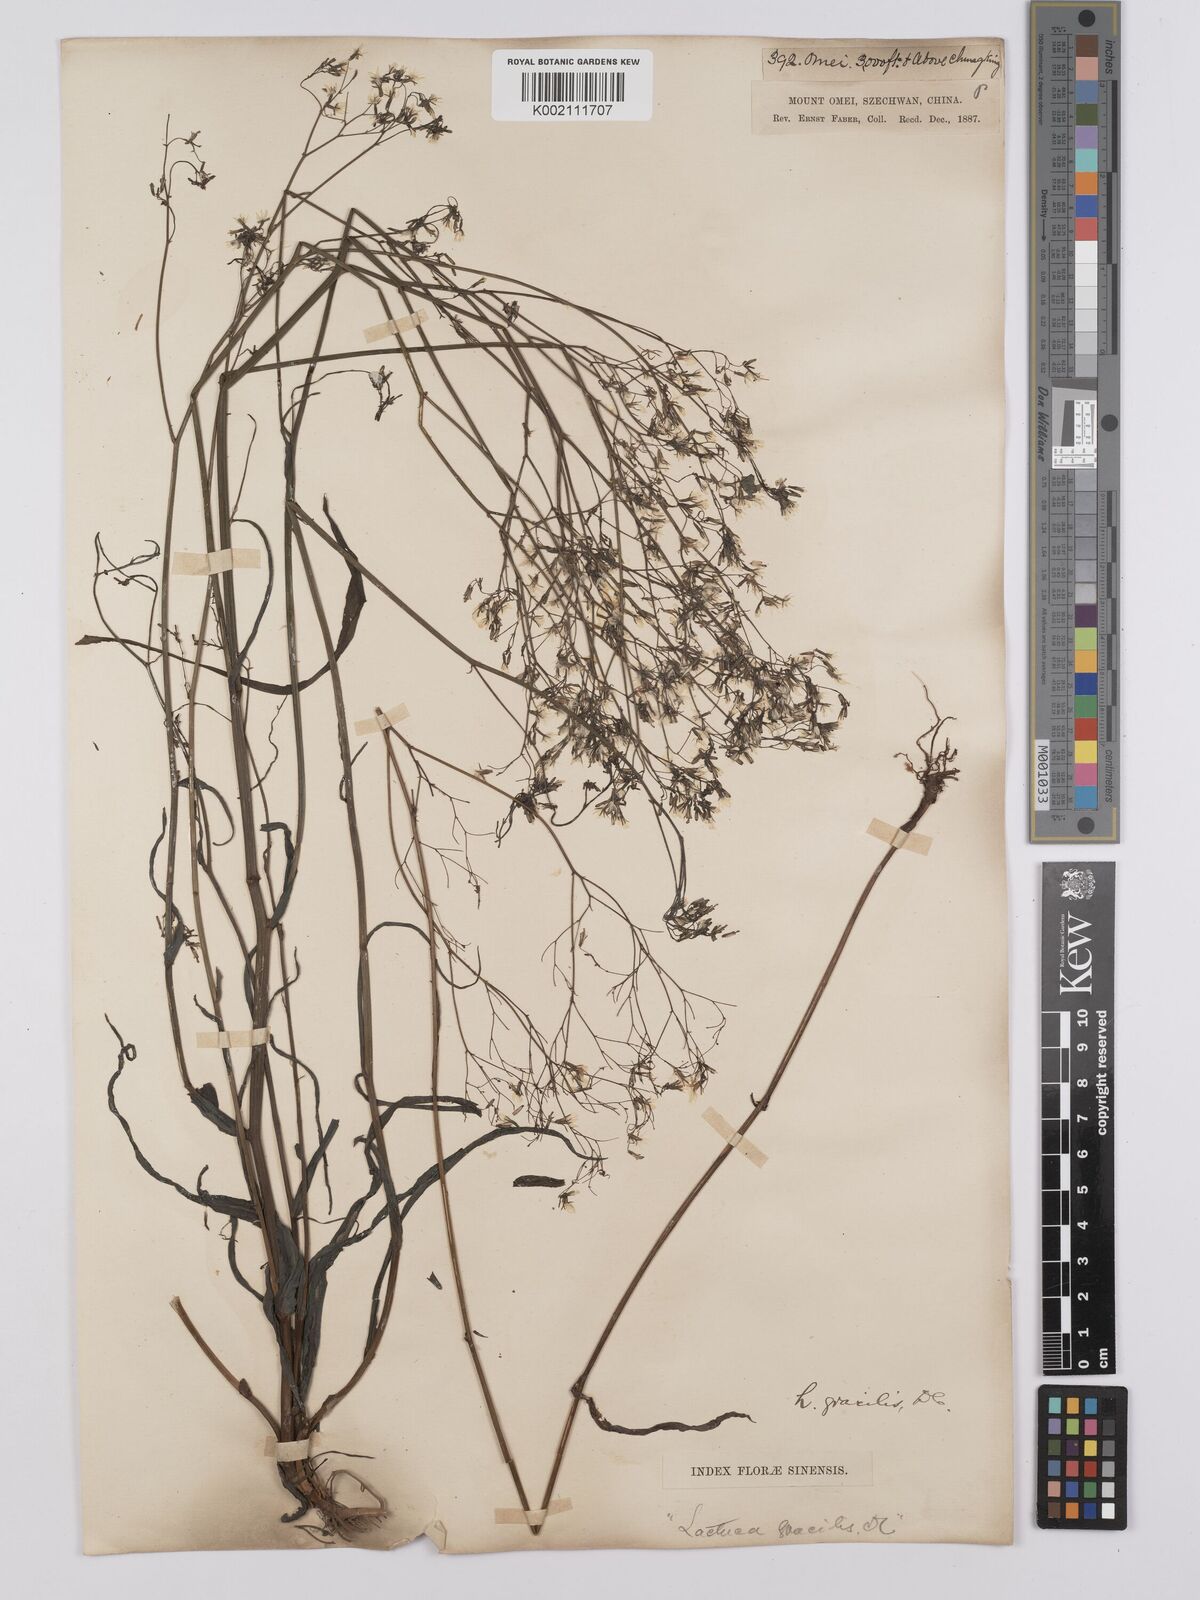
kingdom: Plantae
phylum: Tracheophyta
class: Magnoliopsida
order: Asterales
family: Asteraceae
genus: Ixeridium
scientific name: Ixeridium
